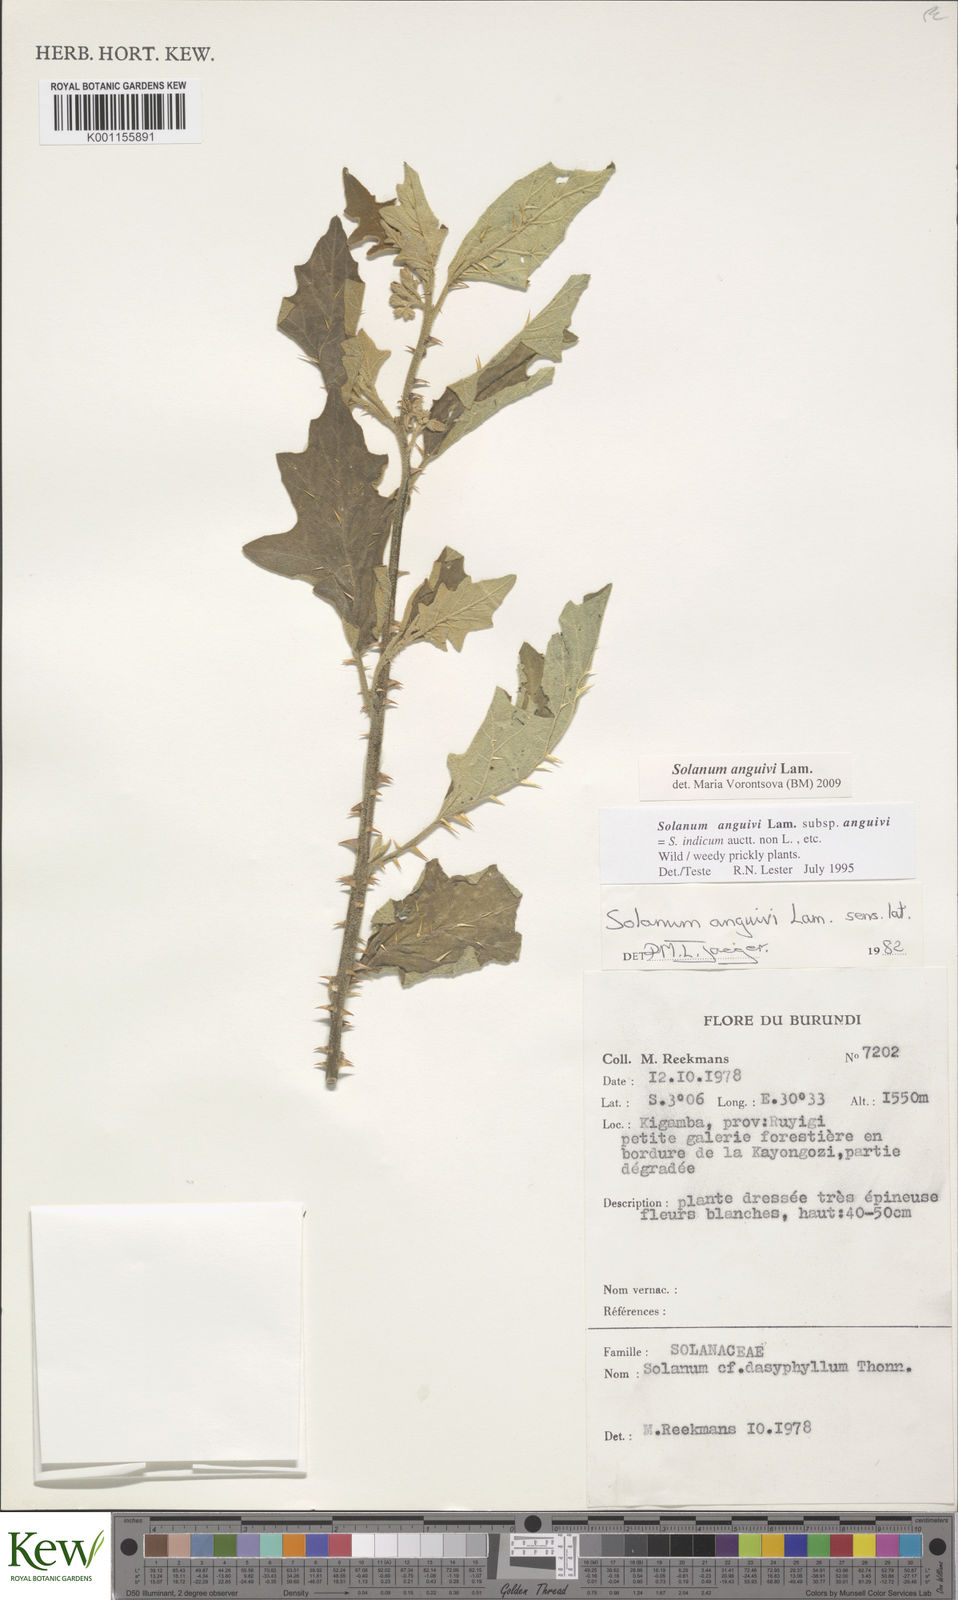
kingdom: Plantae
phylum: Tracheophyta
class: Magnoliopsida
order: Solanales
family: Solanaceae
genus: Solanum
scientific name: Solanum anguivi
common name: Forest bitterberry
